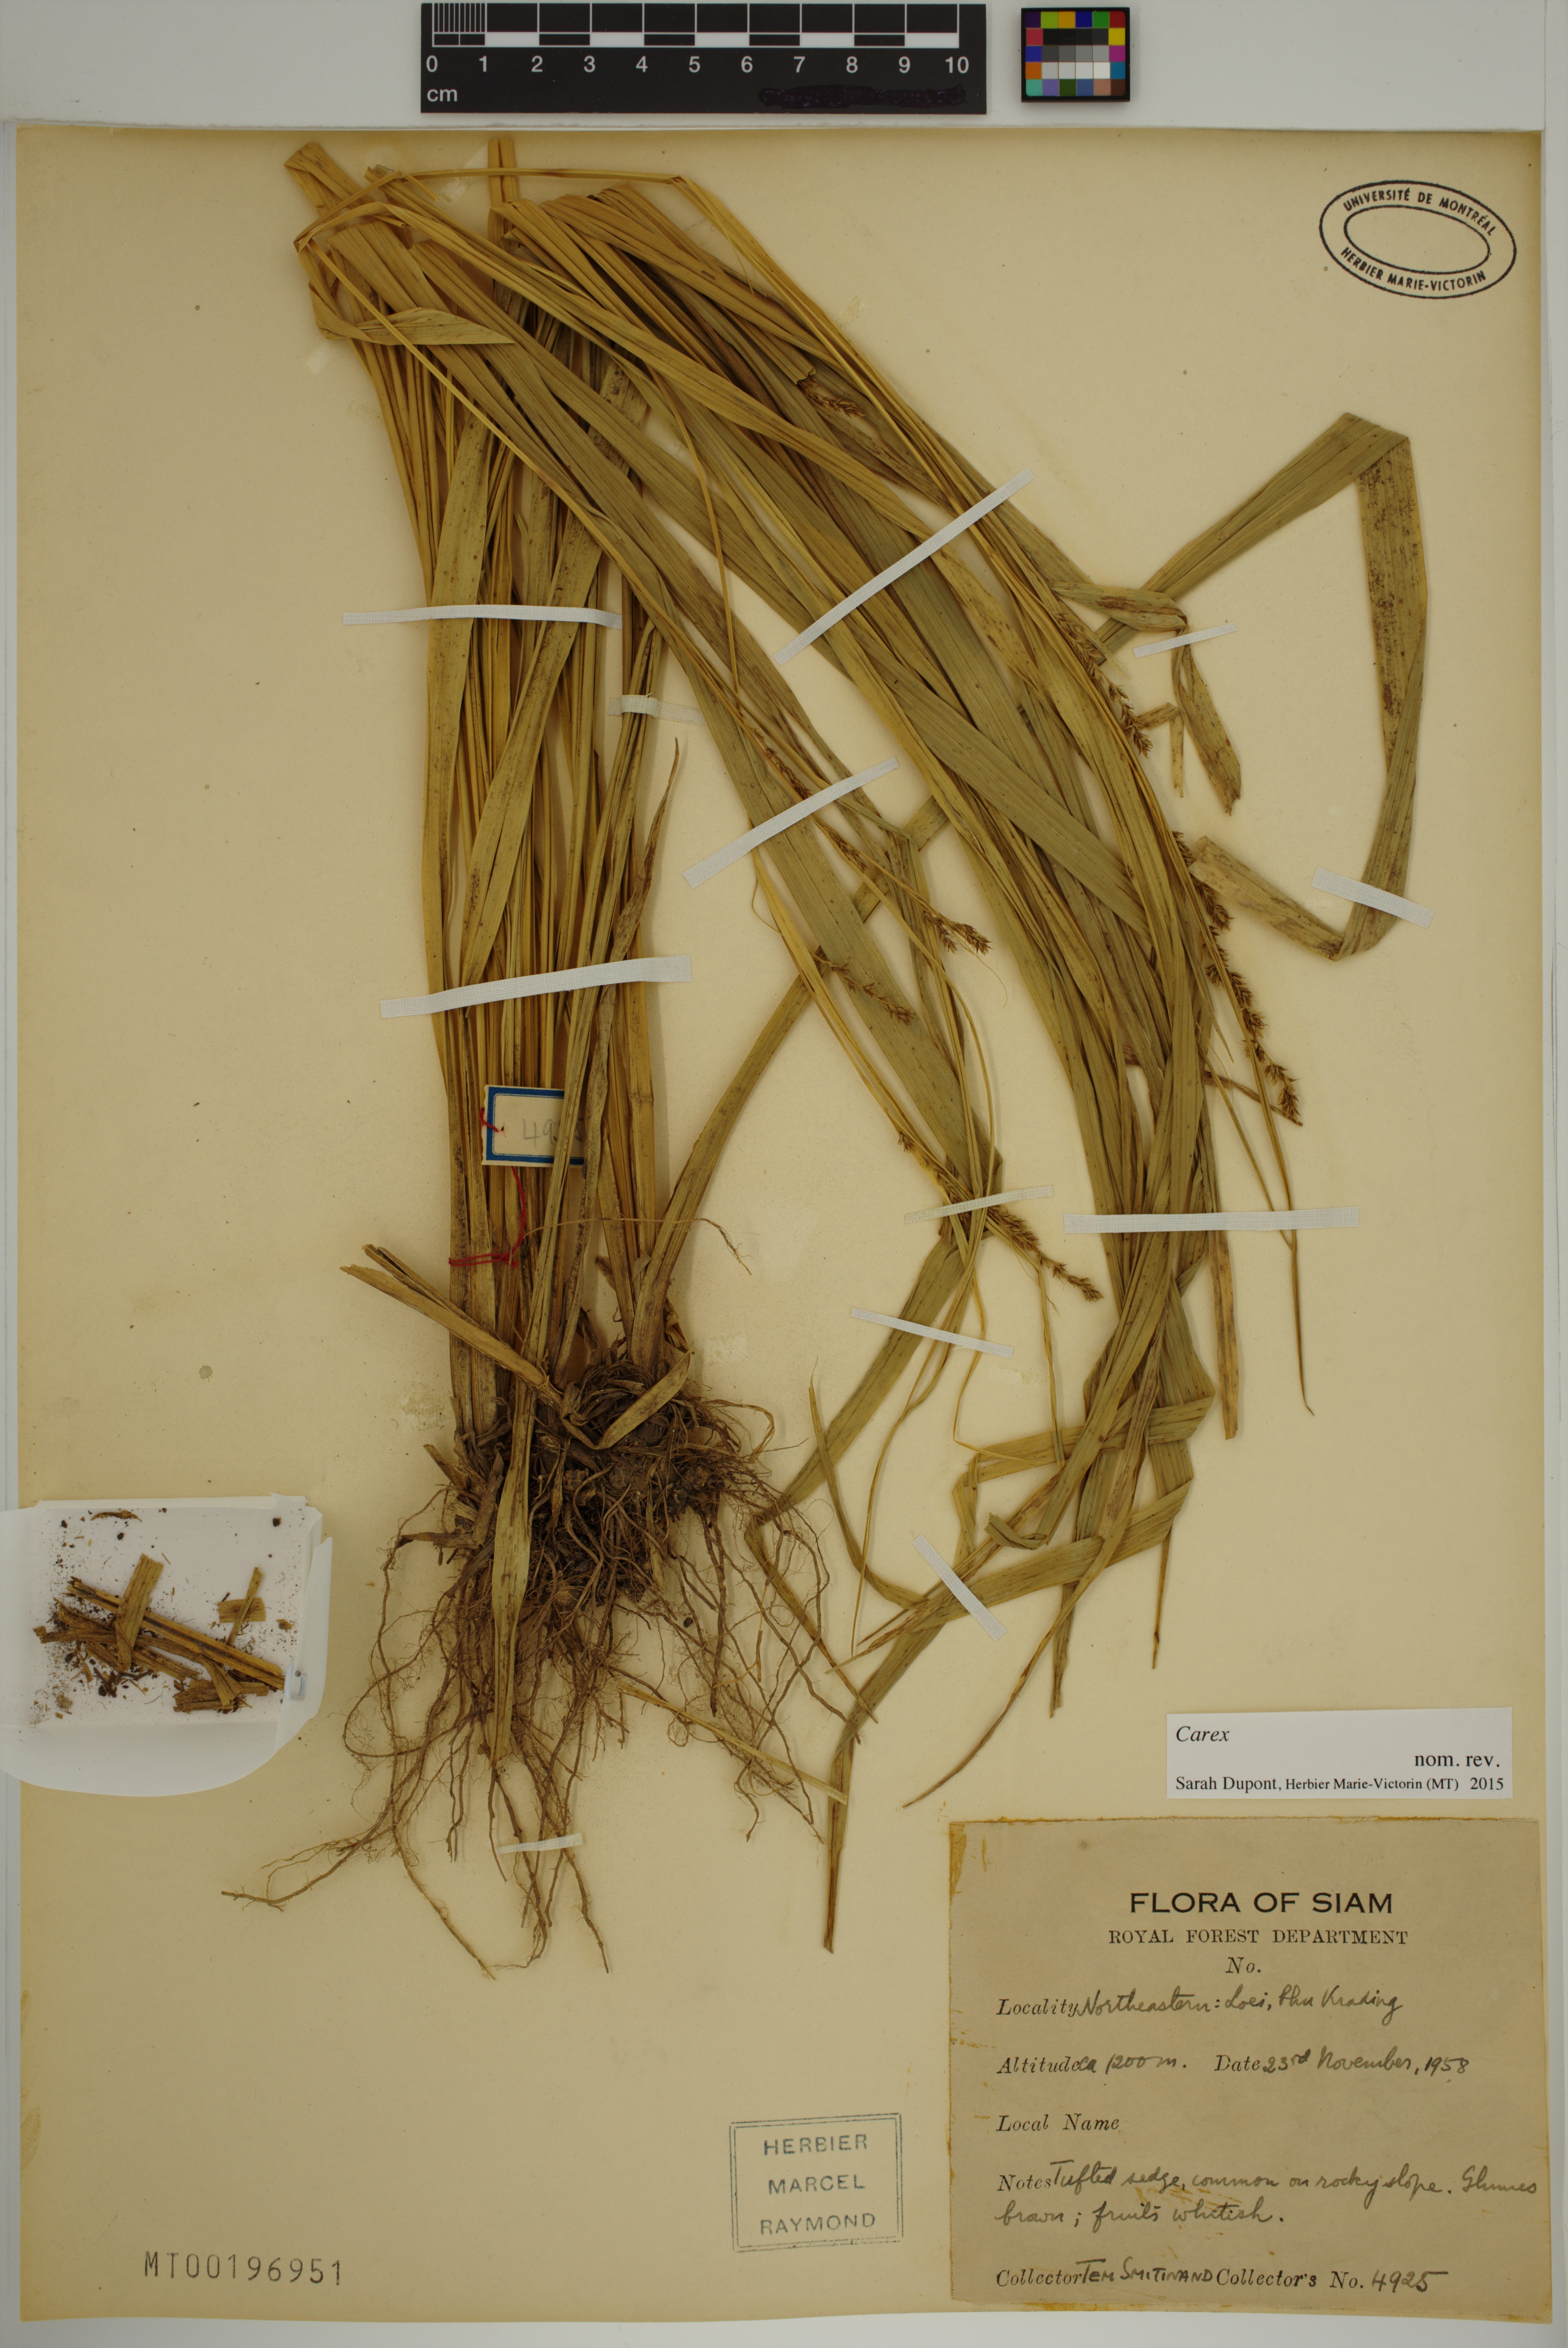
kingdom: Plantae
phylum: Tracheophyta
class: Liliopsida
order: Poales
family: Cyperaceae
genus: Carex
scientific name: Carex
